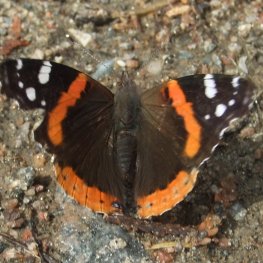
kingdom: Animalia
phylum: Arthropoda
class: Insecta
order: Lepidoptera
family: Nymphalidae
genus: Vanessa
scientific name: Vanessa atalanta
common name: Red Admiral
